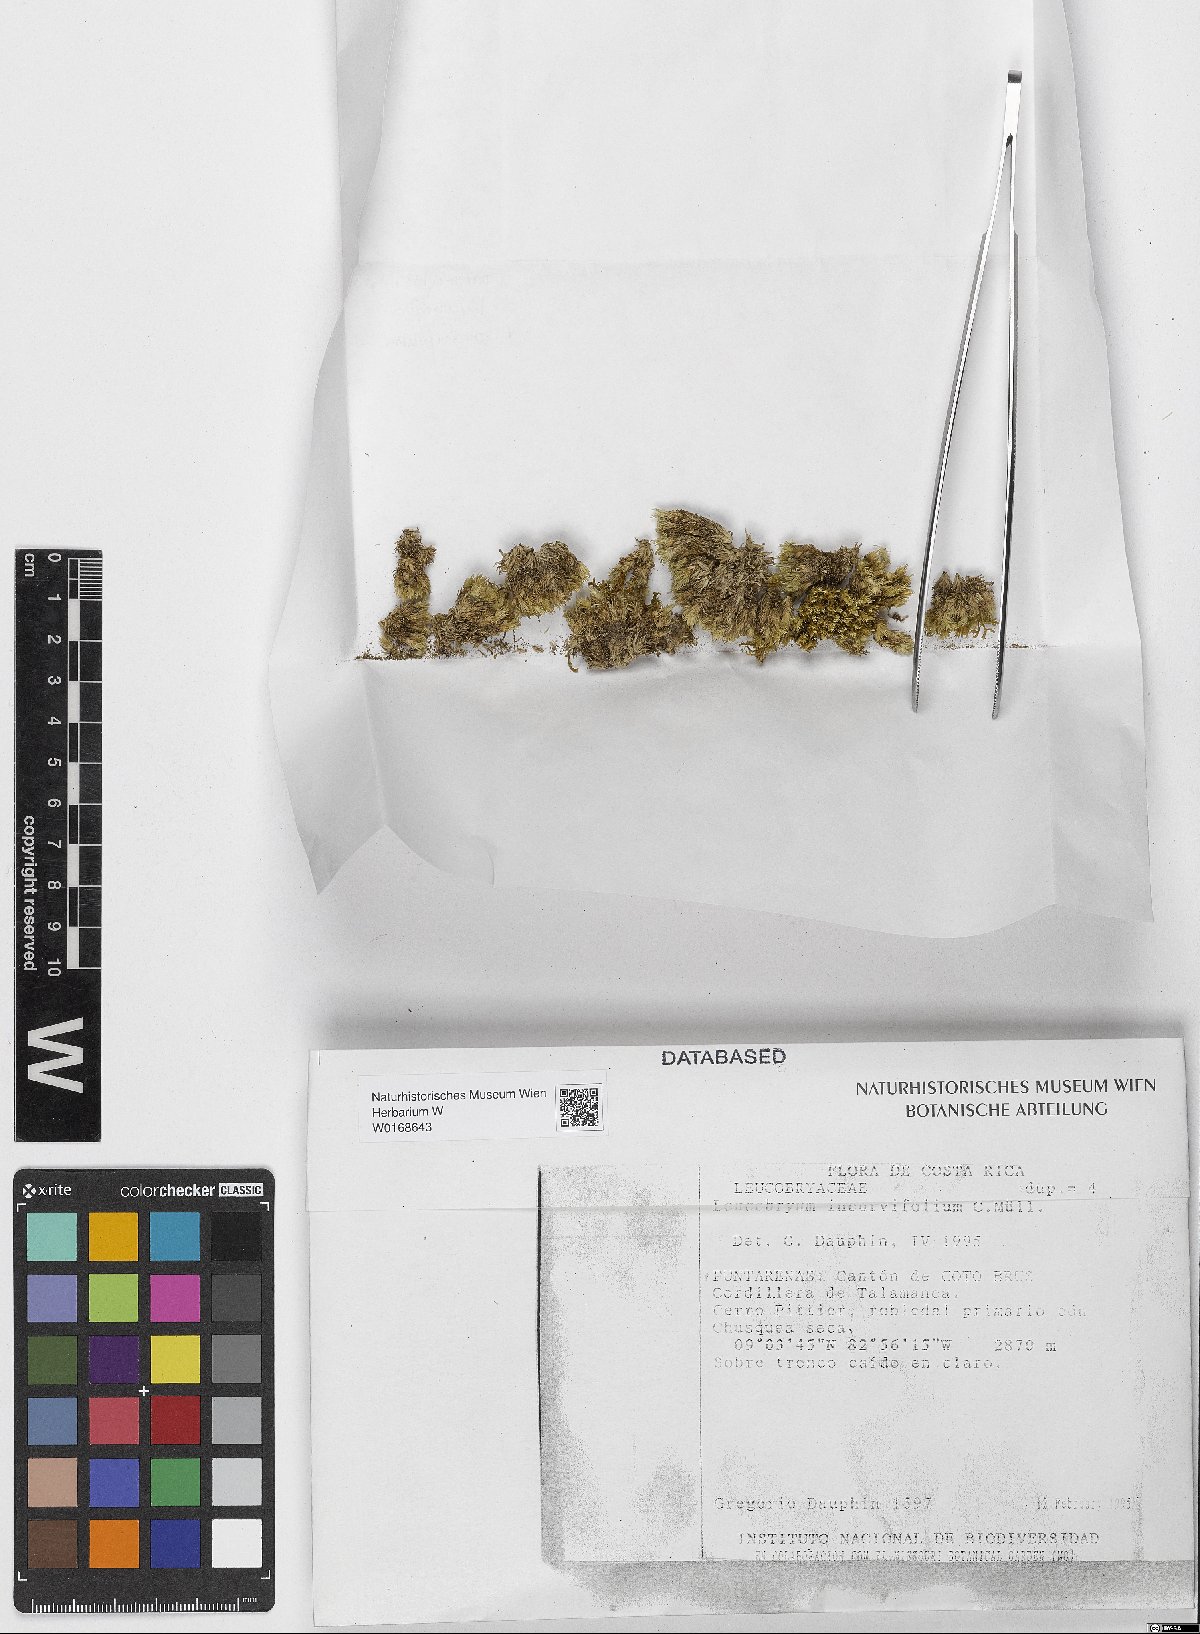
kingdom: Plantae
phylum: Bryophyta
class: Bryopsida
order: Dicranales
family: Leucobryaceae
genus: Leucobryum
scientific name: Leucobryum incurvifolium
